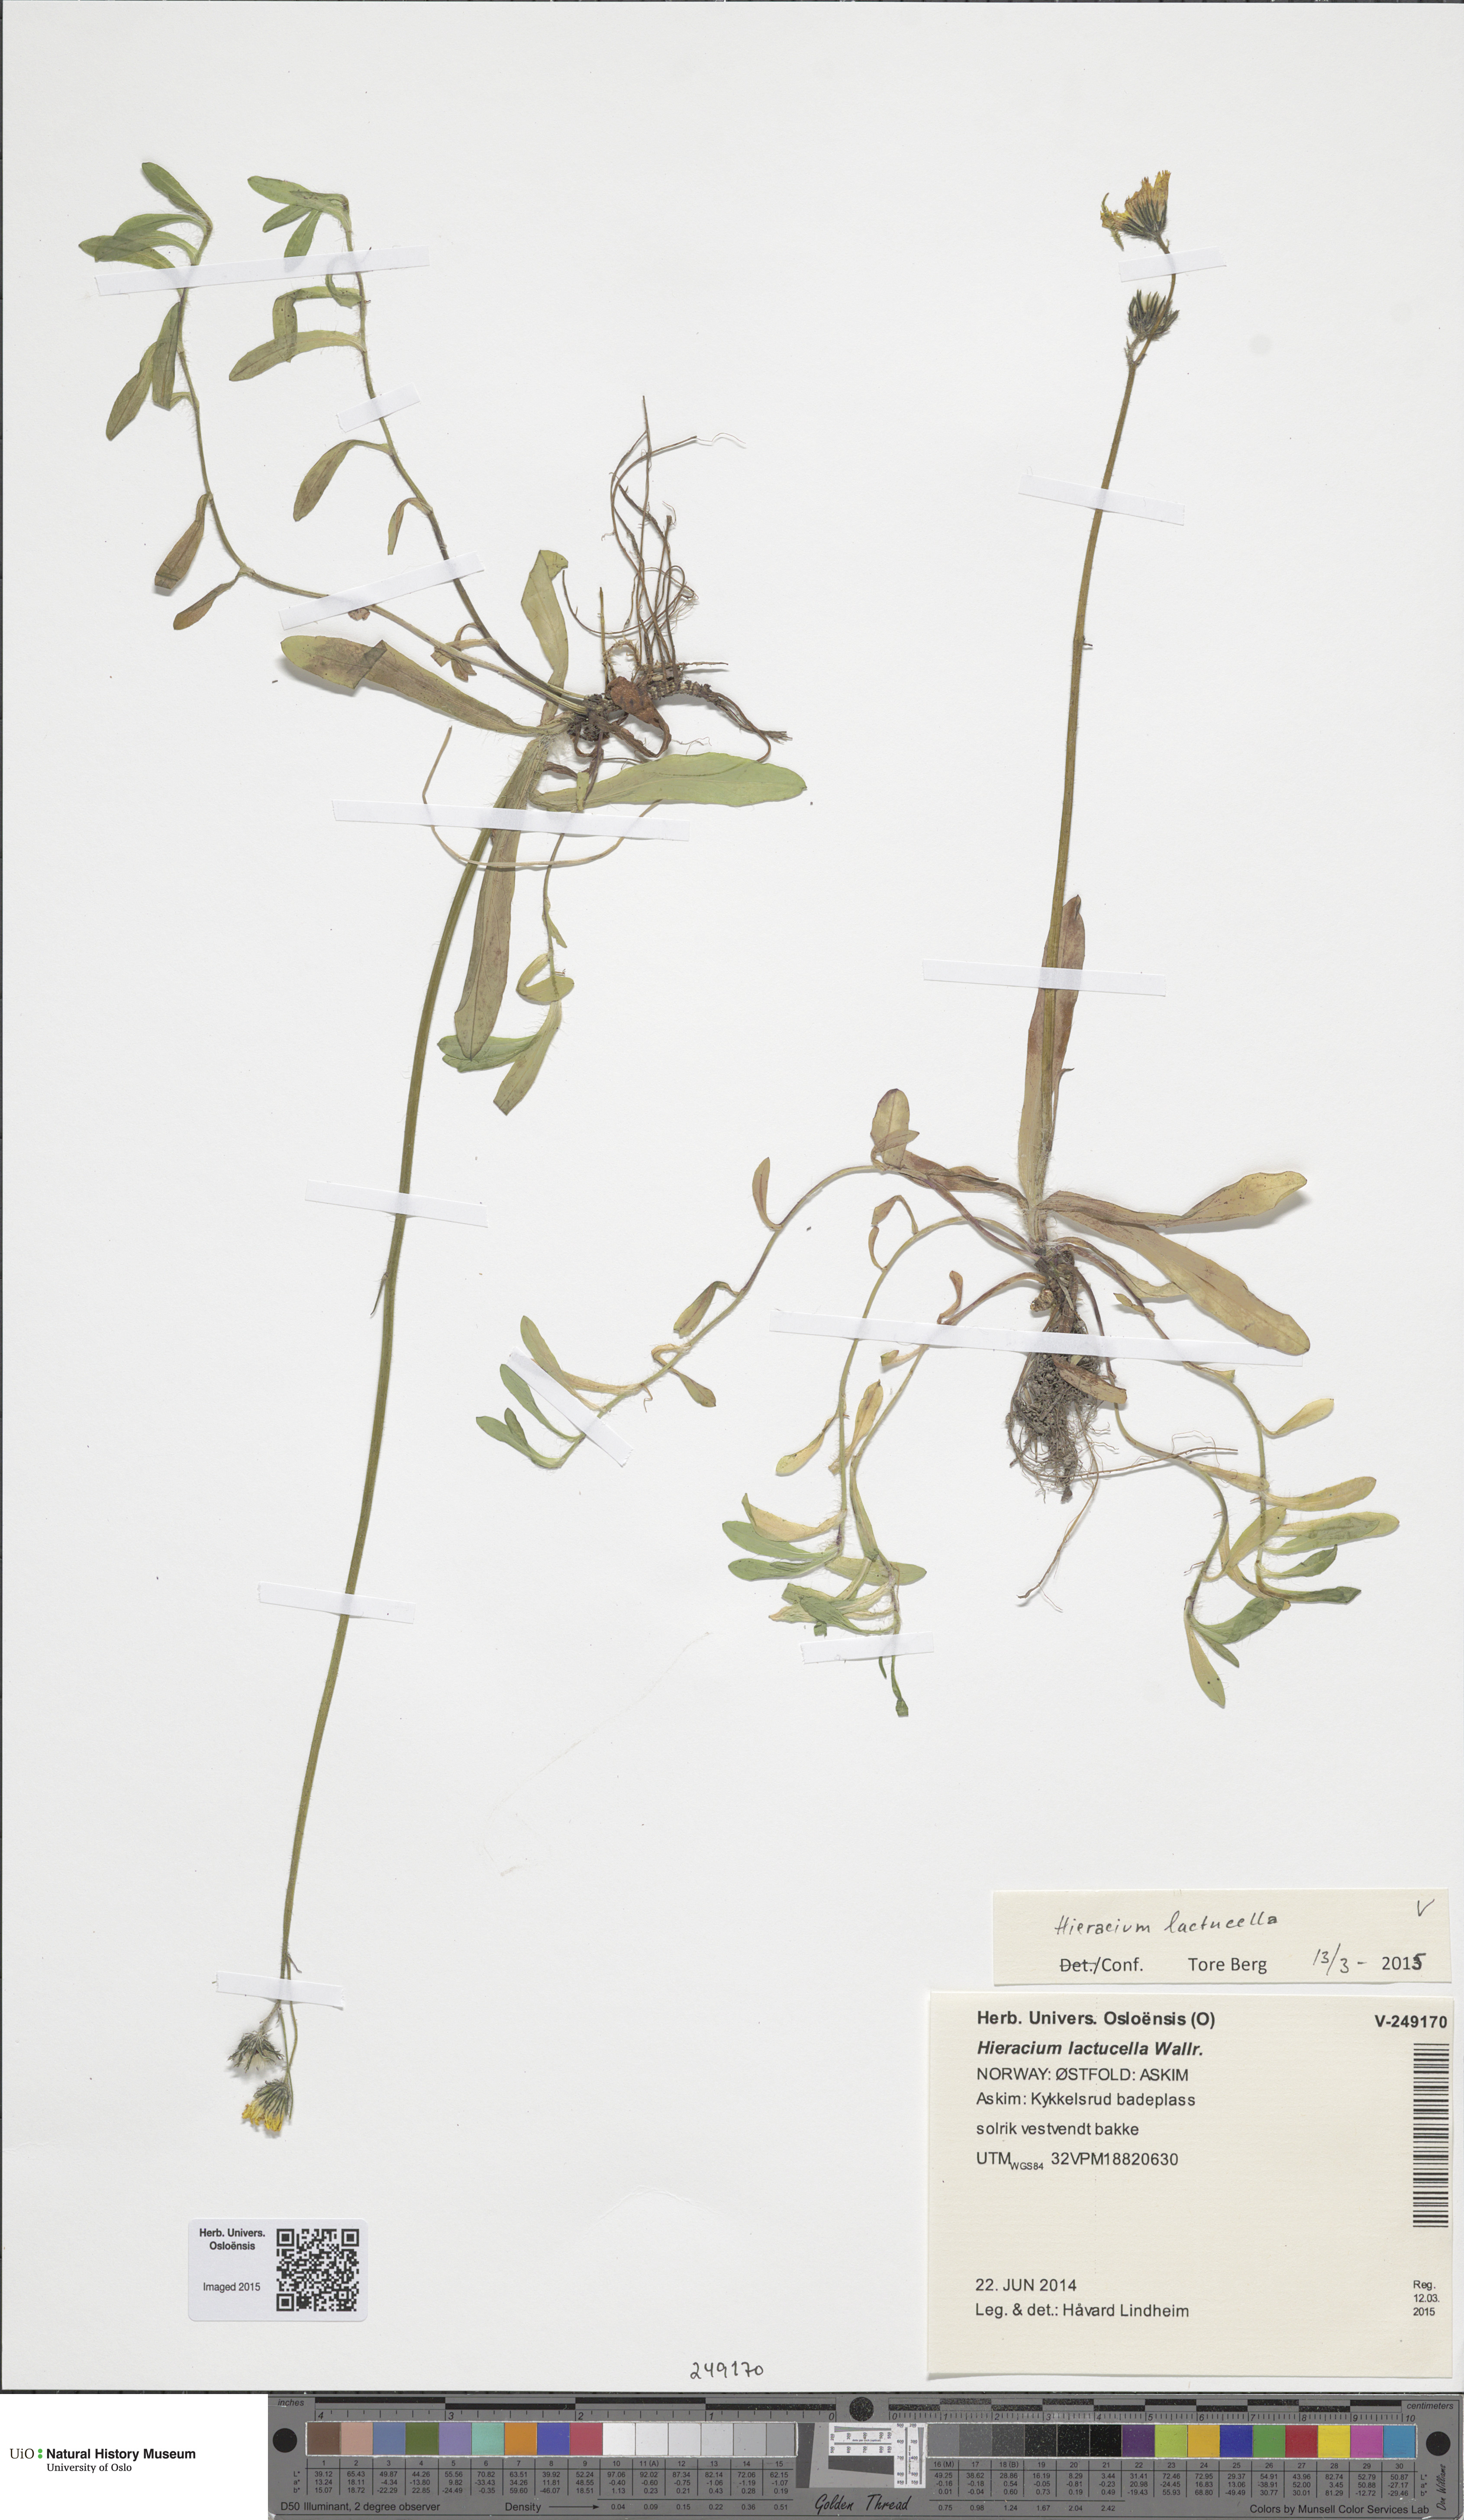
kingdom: Plantae
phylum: Tracheophyta
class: Magnoliopsida
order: Asterales
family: Asteraceae
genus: Pilosella
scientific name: Pilosella lactucella
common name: Glaucous fox-and-cubs
